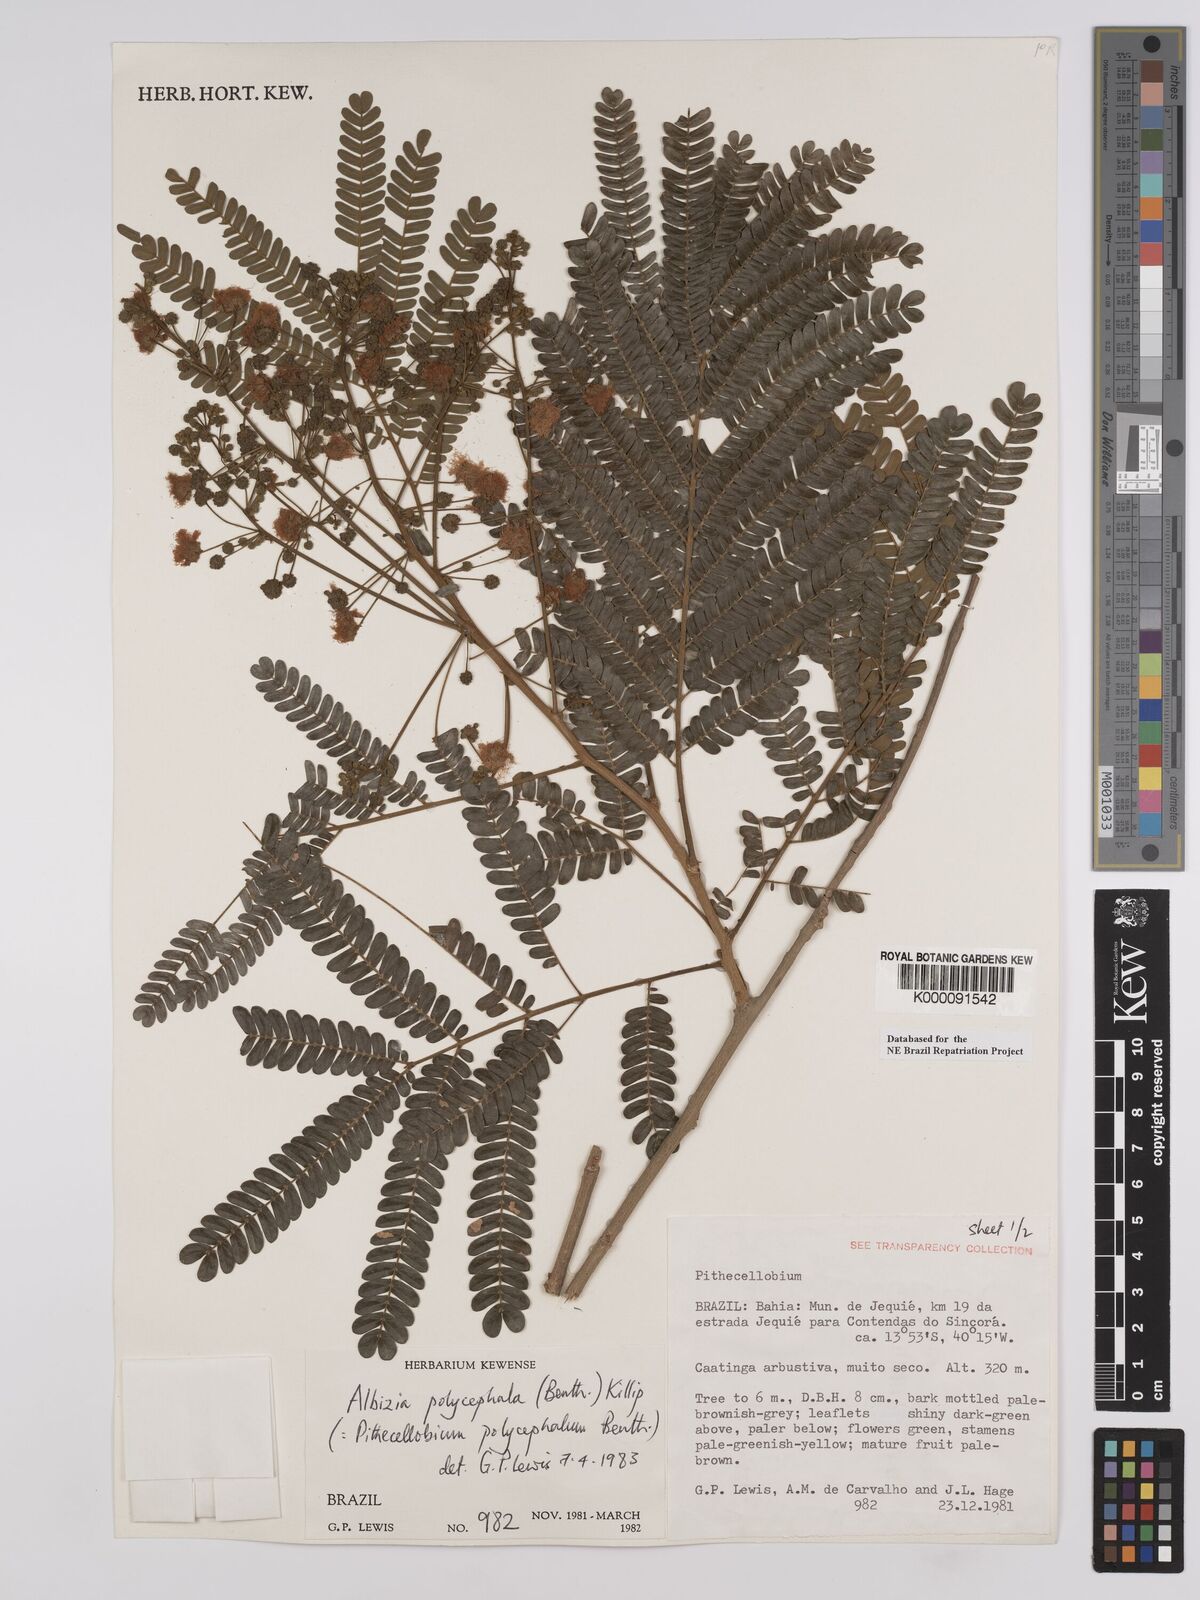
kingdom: Plantae
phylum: Tracheophyta
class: Magnoliopsida
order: Fabales
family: Fabaceae
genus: Albizia
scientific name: Albizia polycephala
